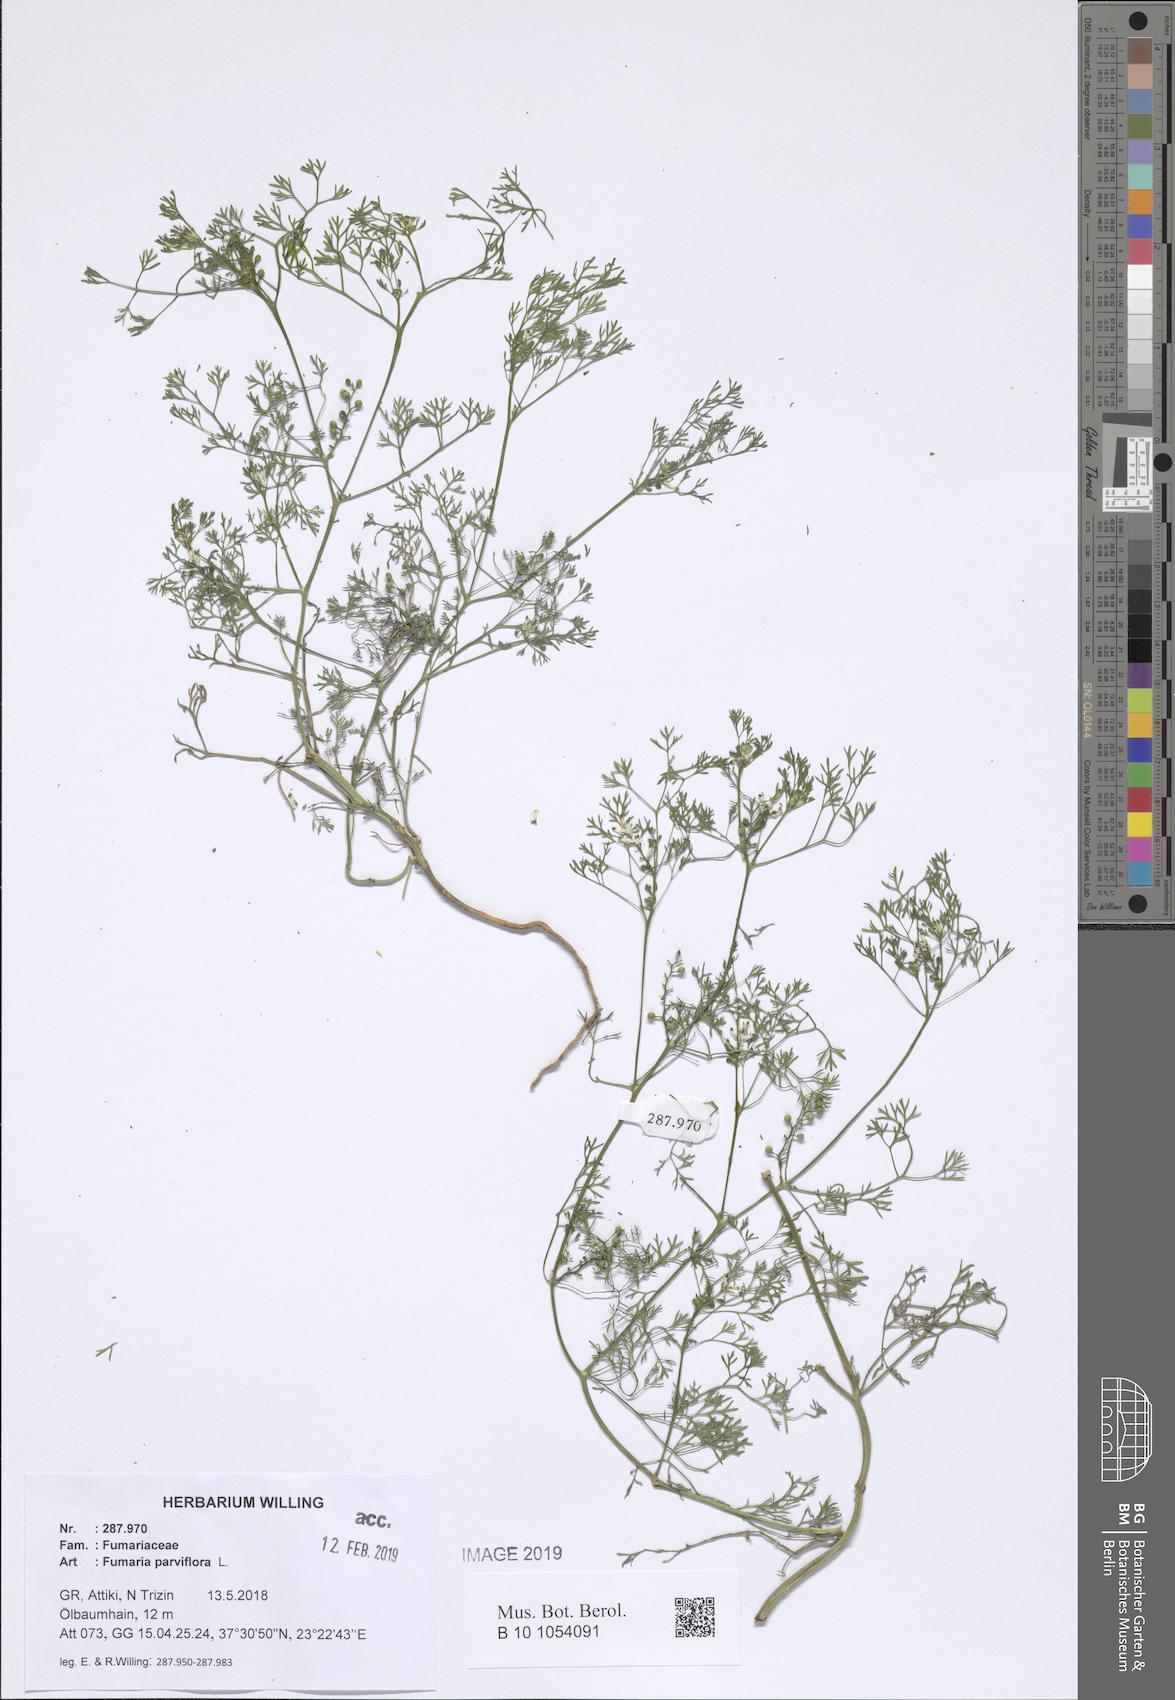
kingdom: Plantae
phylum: Tracheophyta
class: Magnoliopsida
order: Ranunculales
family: Papaveraceae
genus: Fumaria
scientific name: Fumaria parviflora
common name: Fine-leaved fumitory
